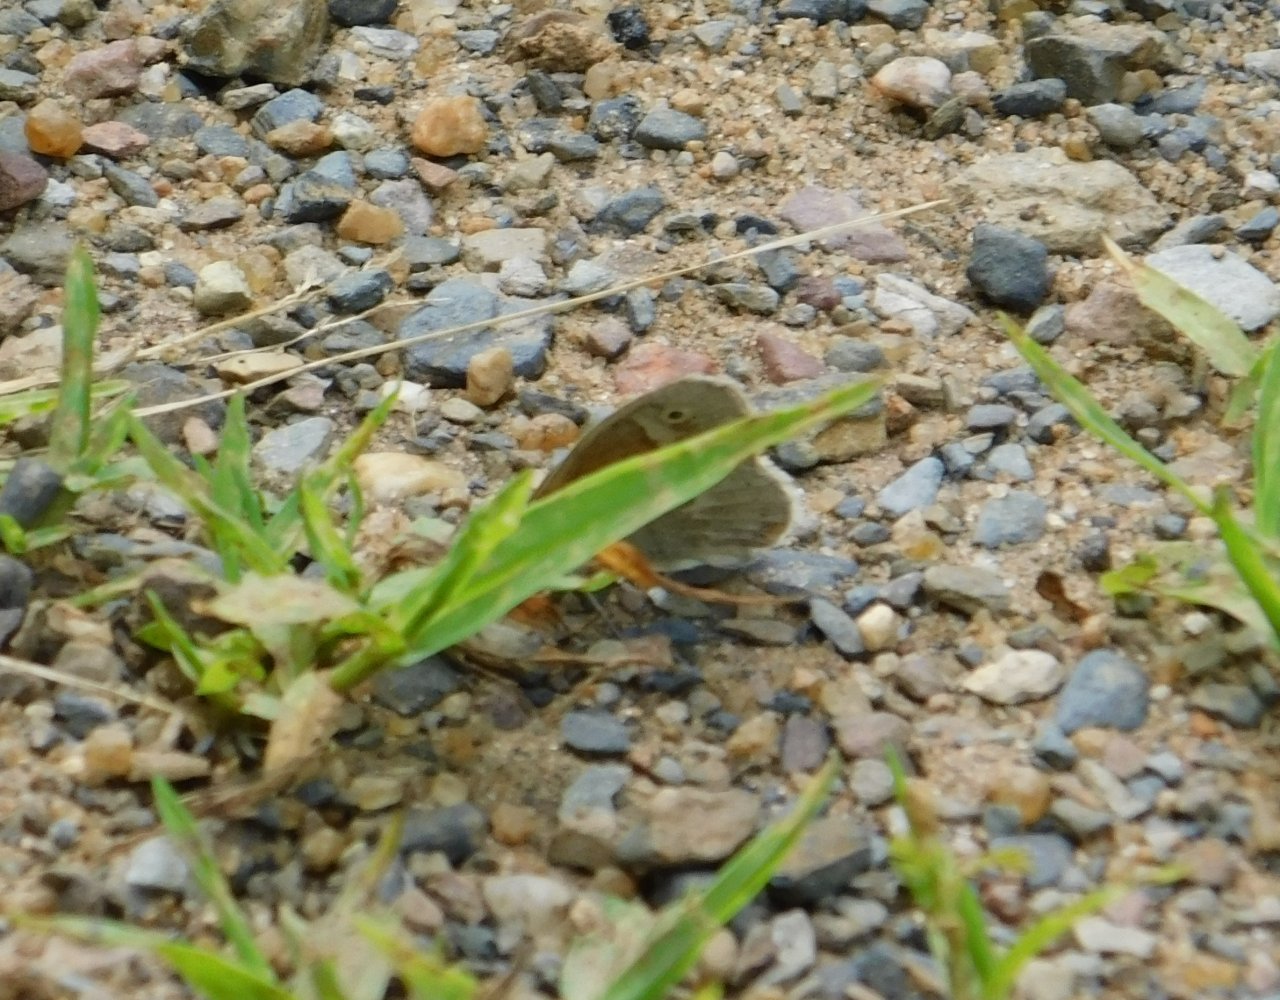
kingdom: Animalia
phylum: Arthropoda
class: Insecta
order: Lepidoptera
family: Nymphalidae
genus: Coenonympha
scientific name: Coenonympha tullia
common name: Large Heath
